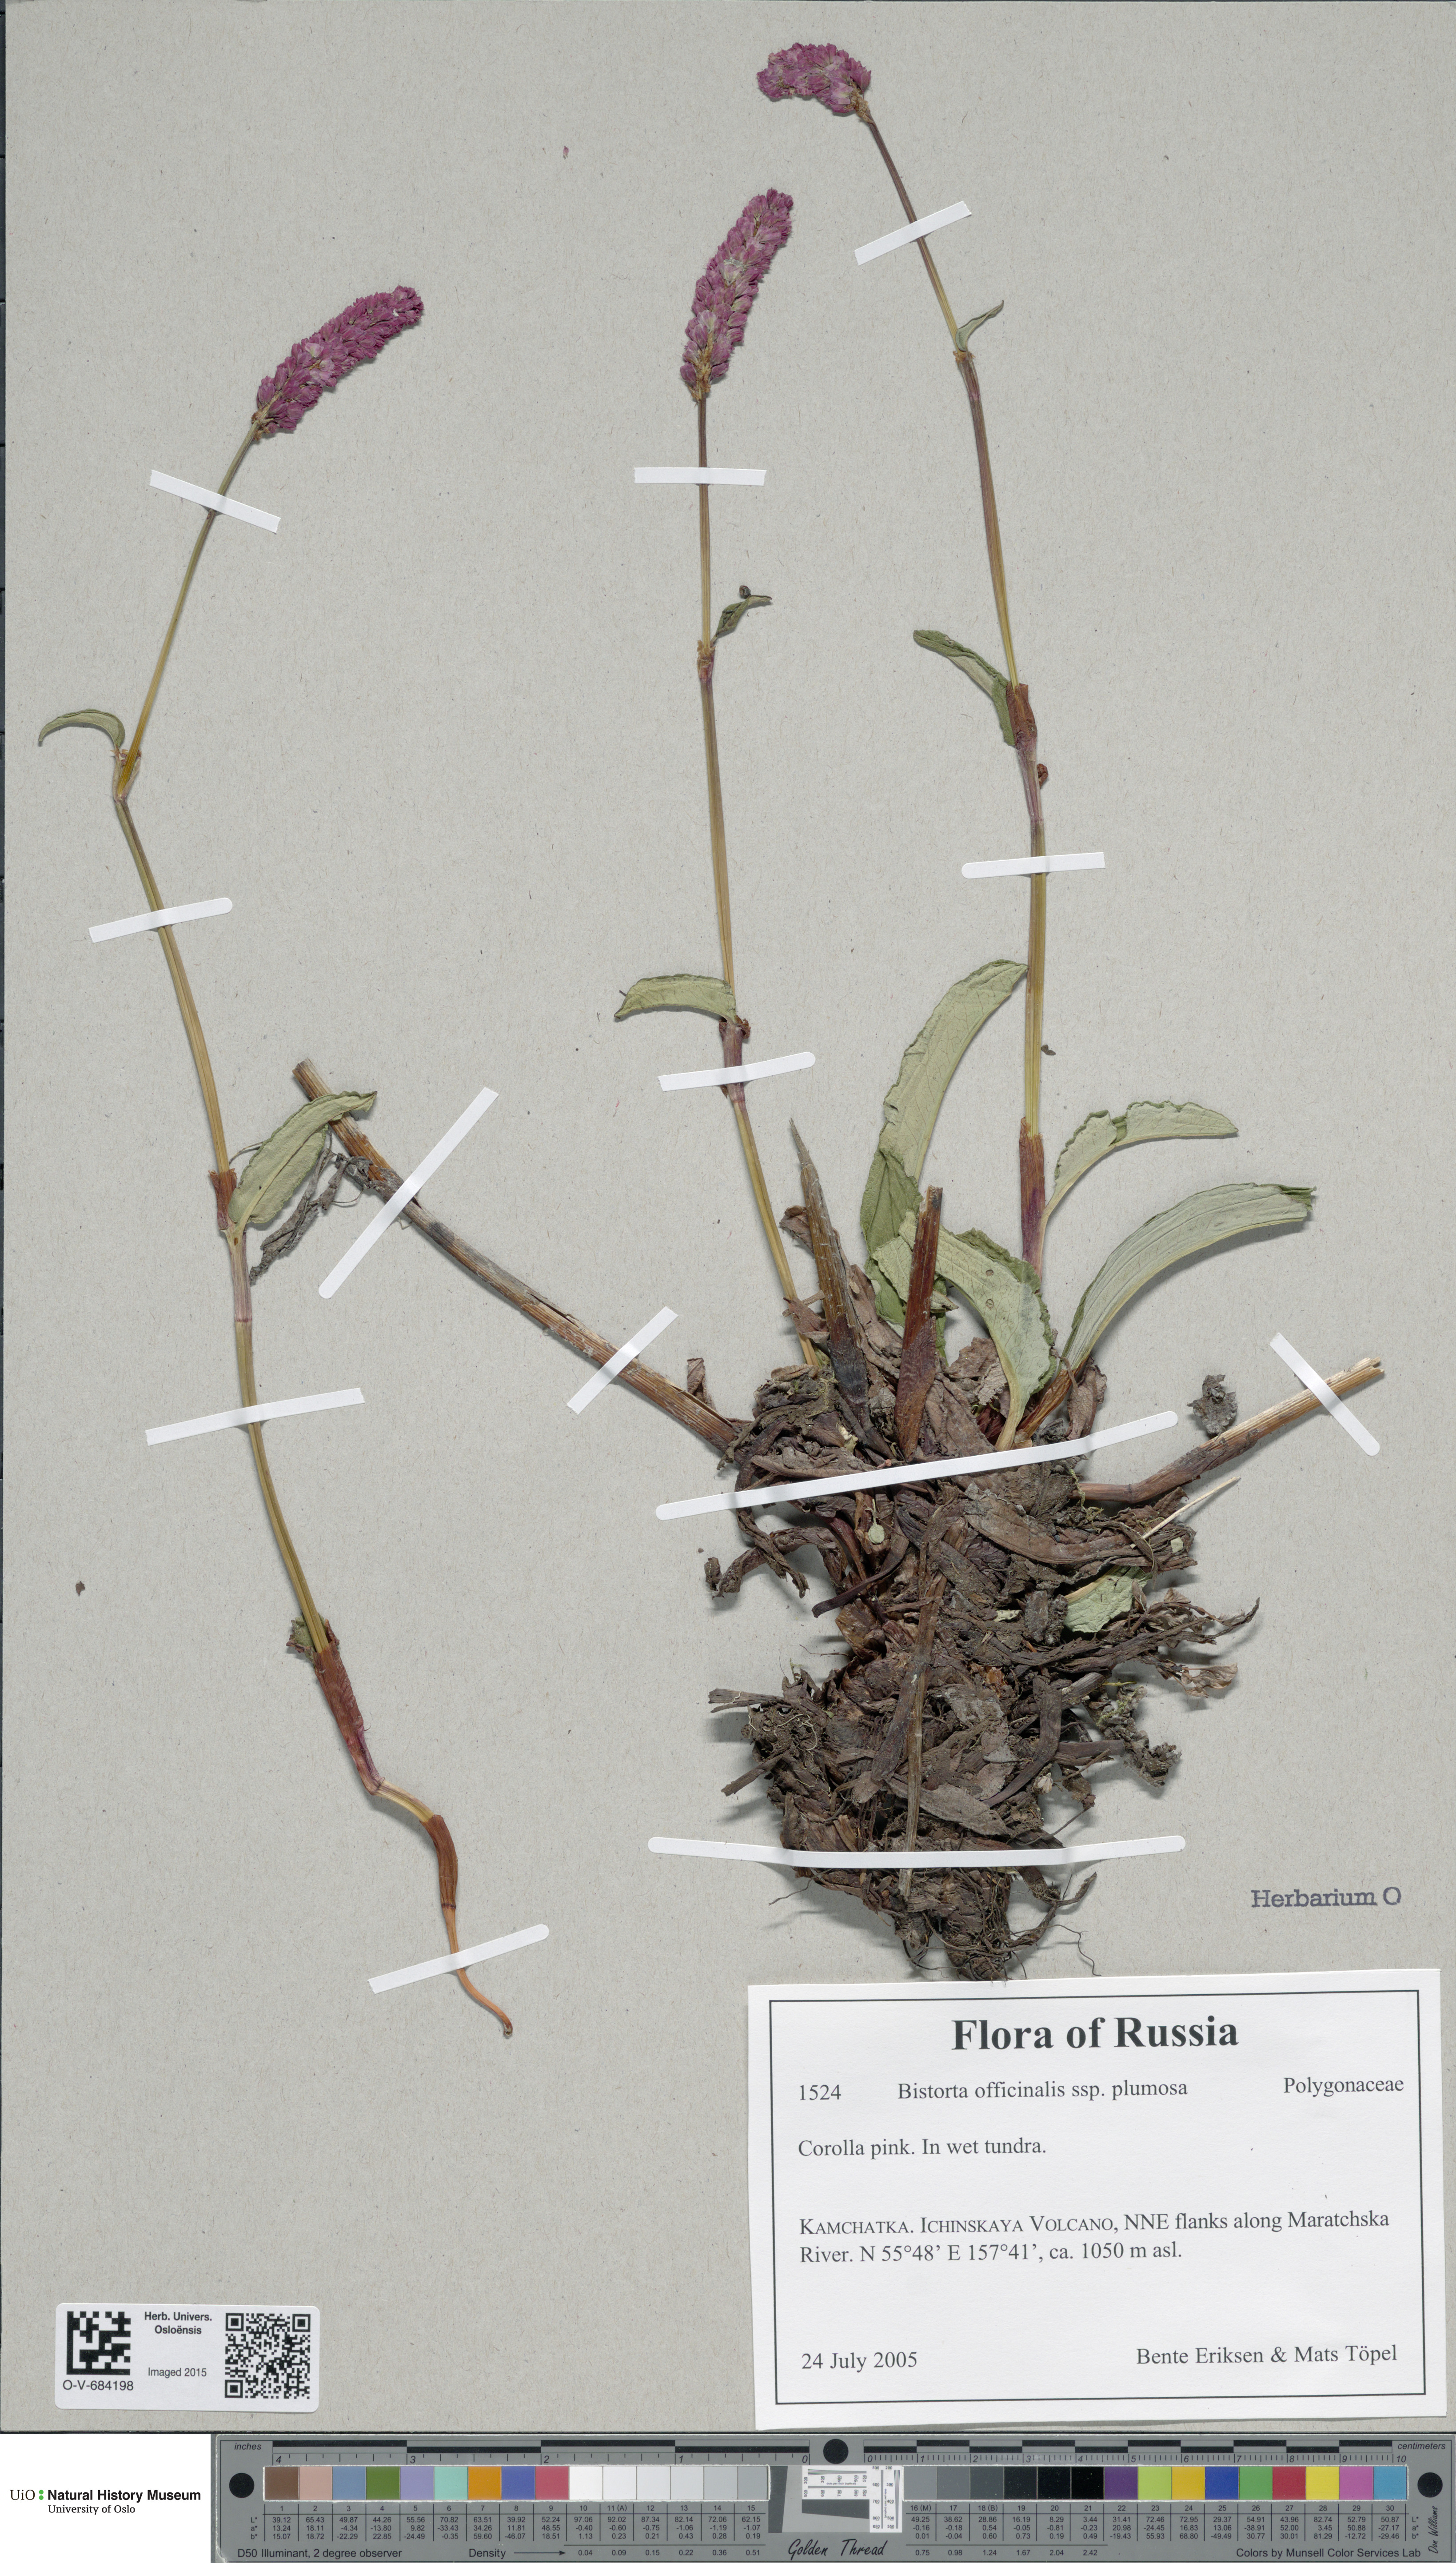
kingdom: Plantae
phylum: Tracheophyta
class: Magnoliopsida
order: Caryophyllales
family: Polygonaceae
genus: Bistorta
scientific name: Bistorta plumosa
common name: Meadow bistort
